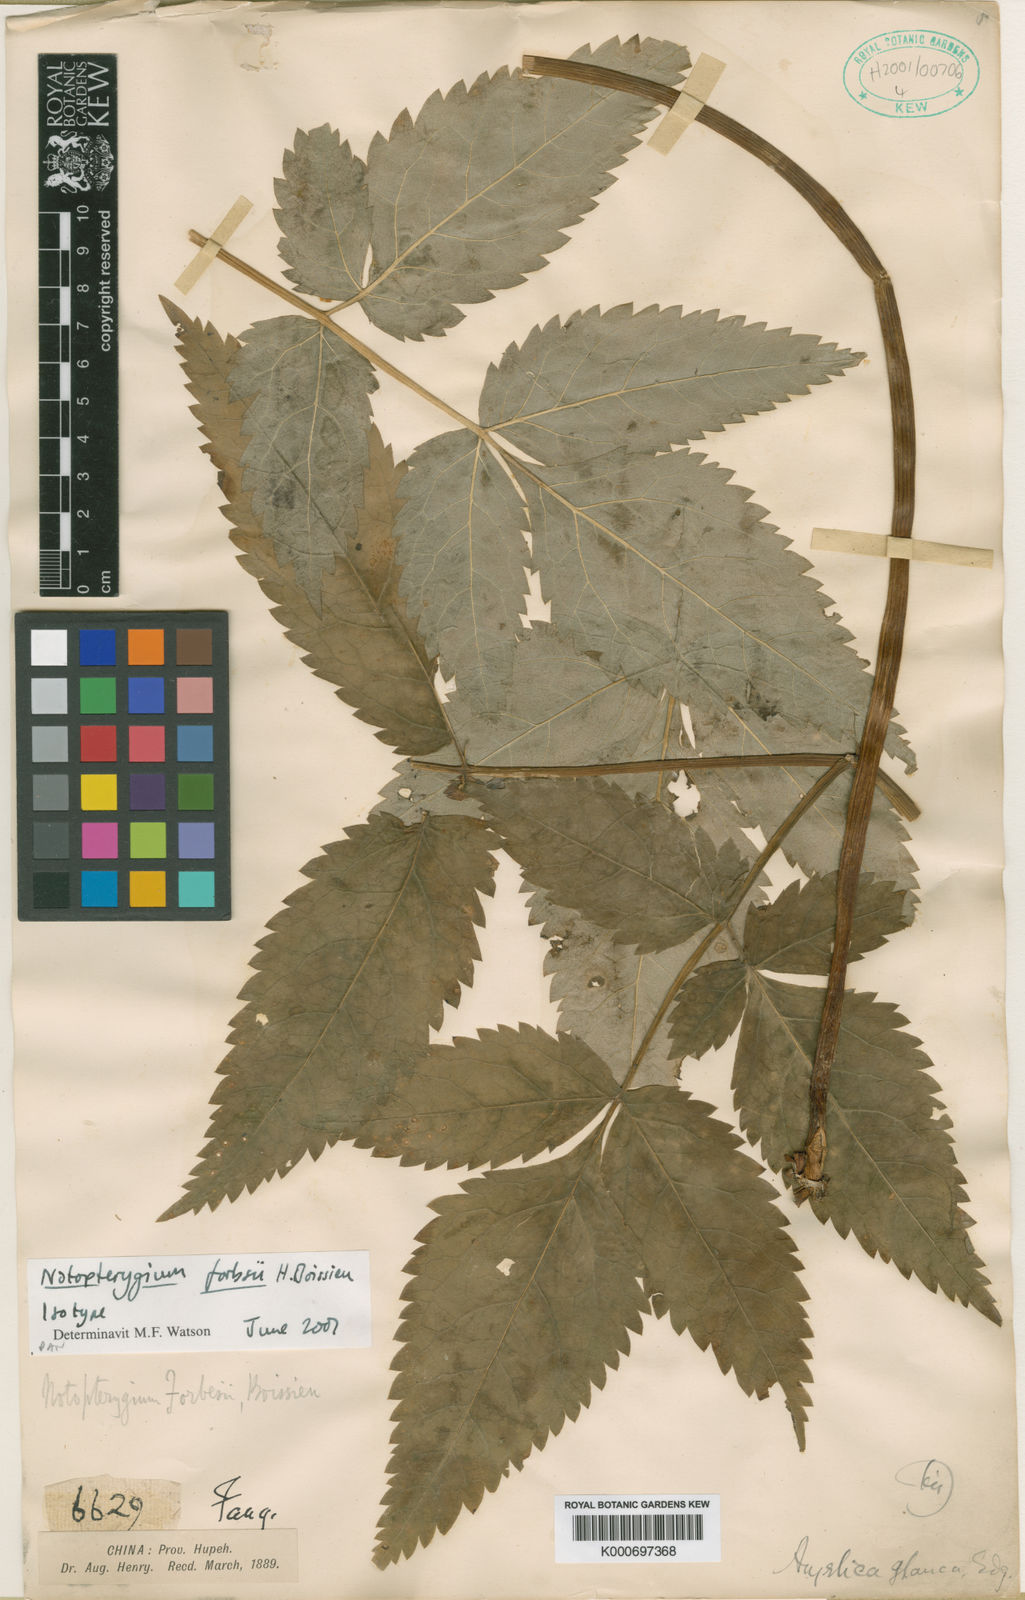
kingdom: Plantae
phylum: Tracheophyta
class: Magnoliopsida
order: Apiales
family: Apiaceae
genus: Hansenia
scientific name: Hansenia forbesii
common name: Notopterygium
